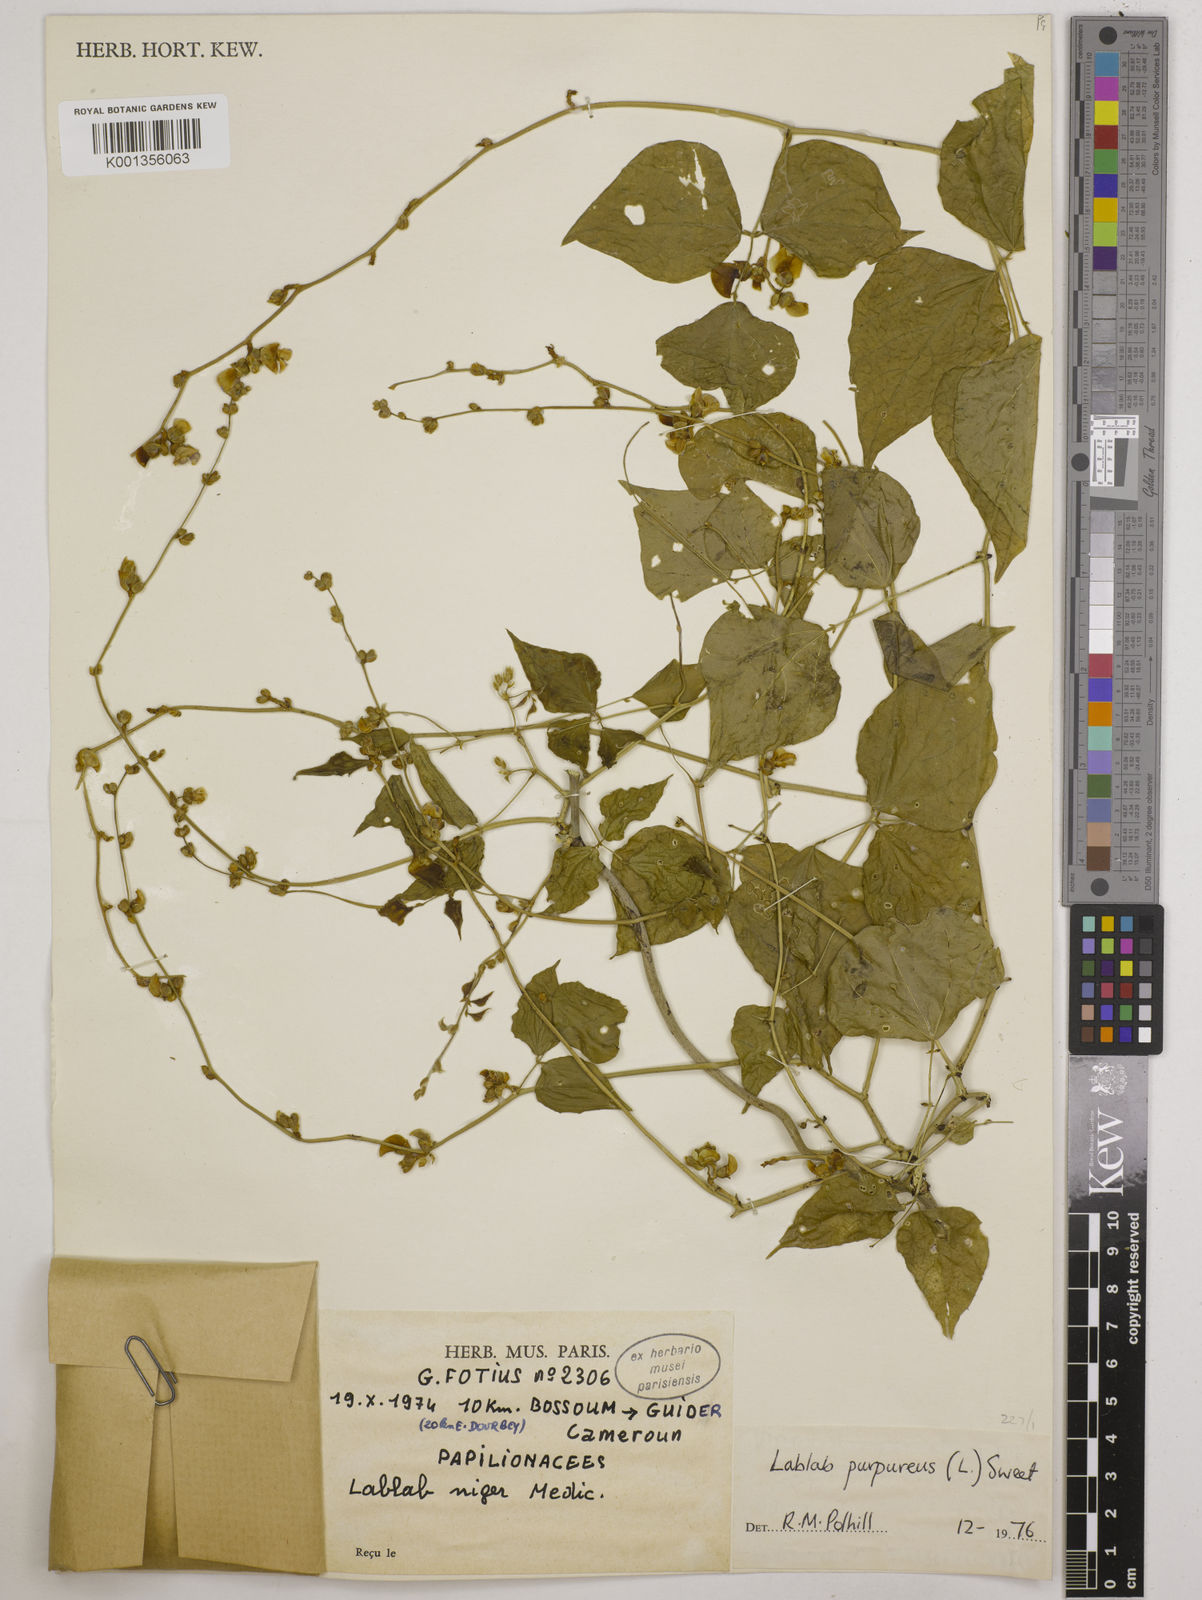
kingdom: Plantae
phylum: Tracheophyta
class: Magnoliopsida
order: Fabales
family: Fabaceae
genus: Lablab
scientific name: Lablab purpureus
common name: Lablab-bean
